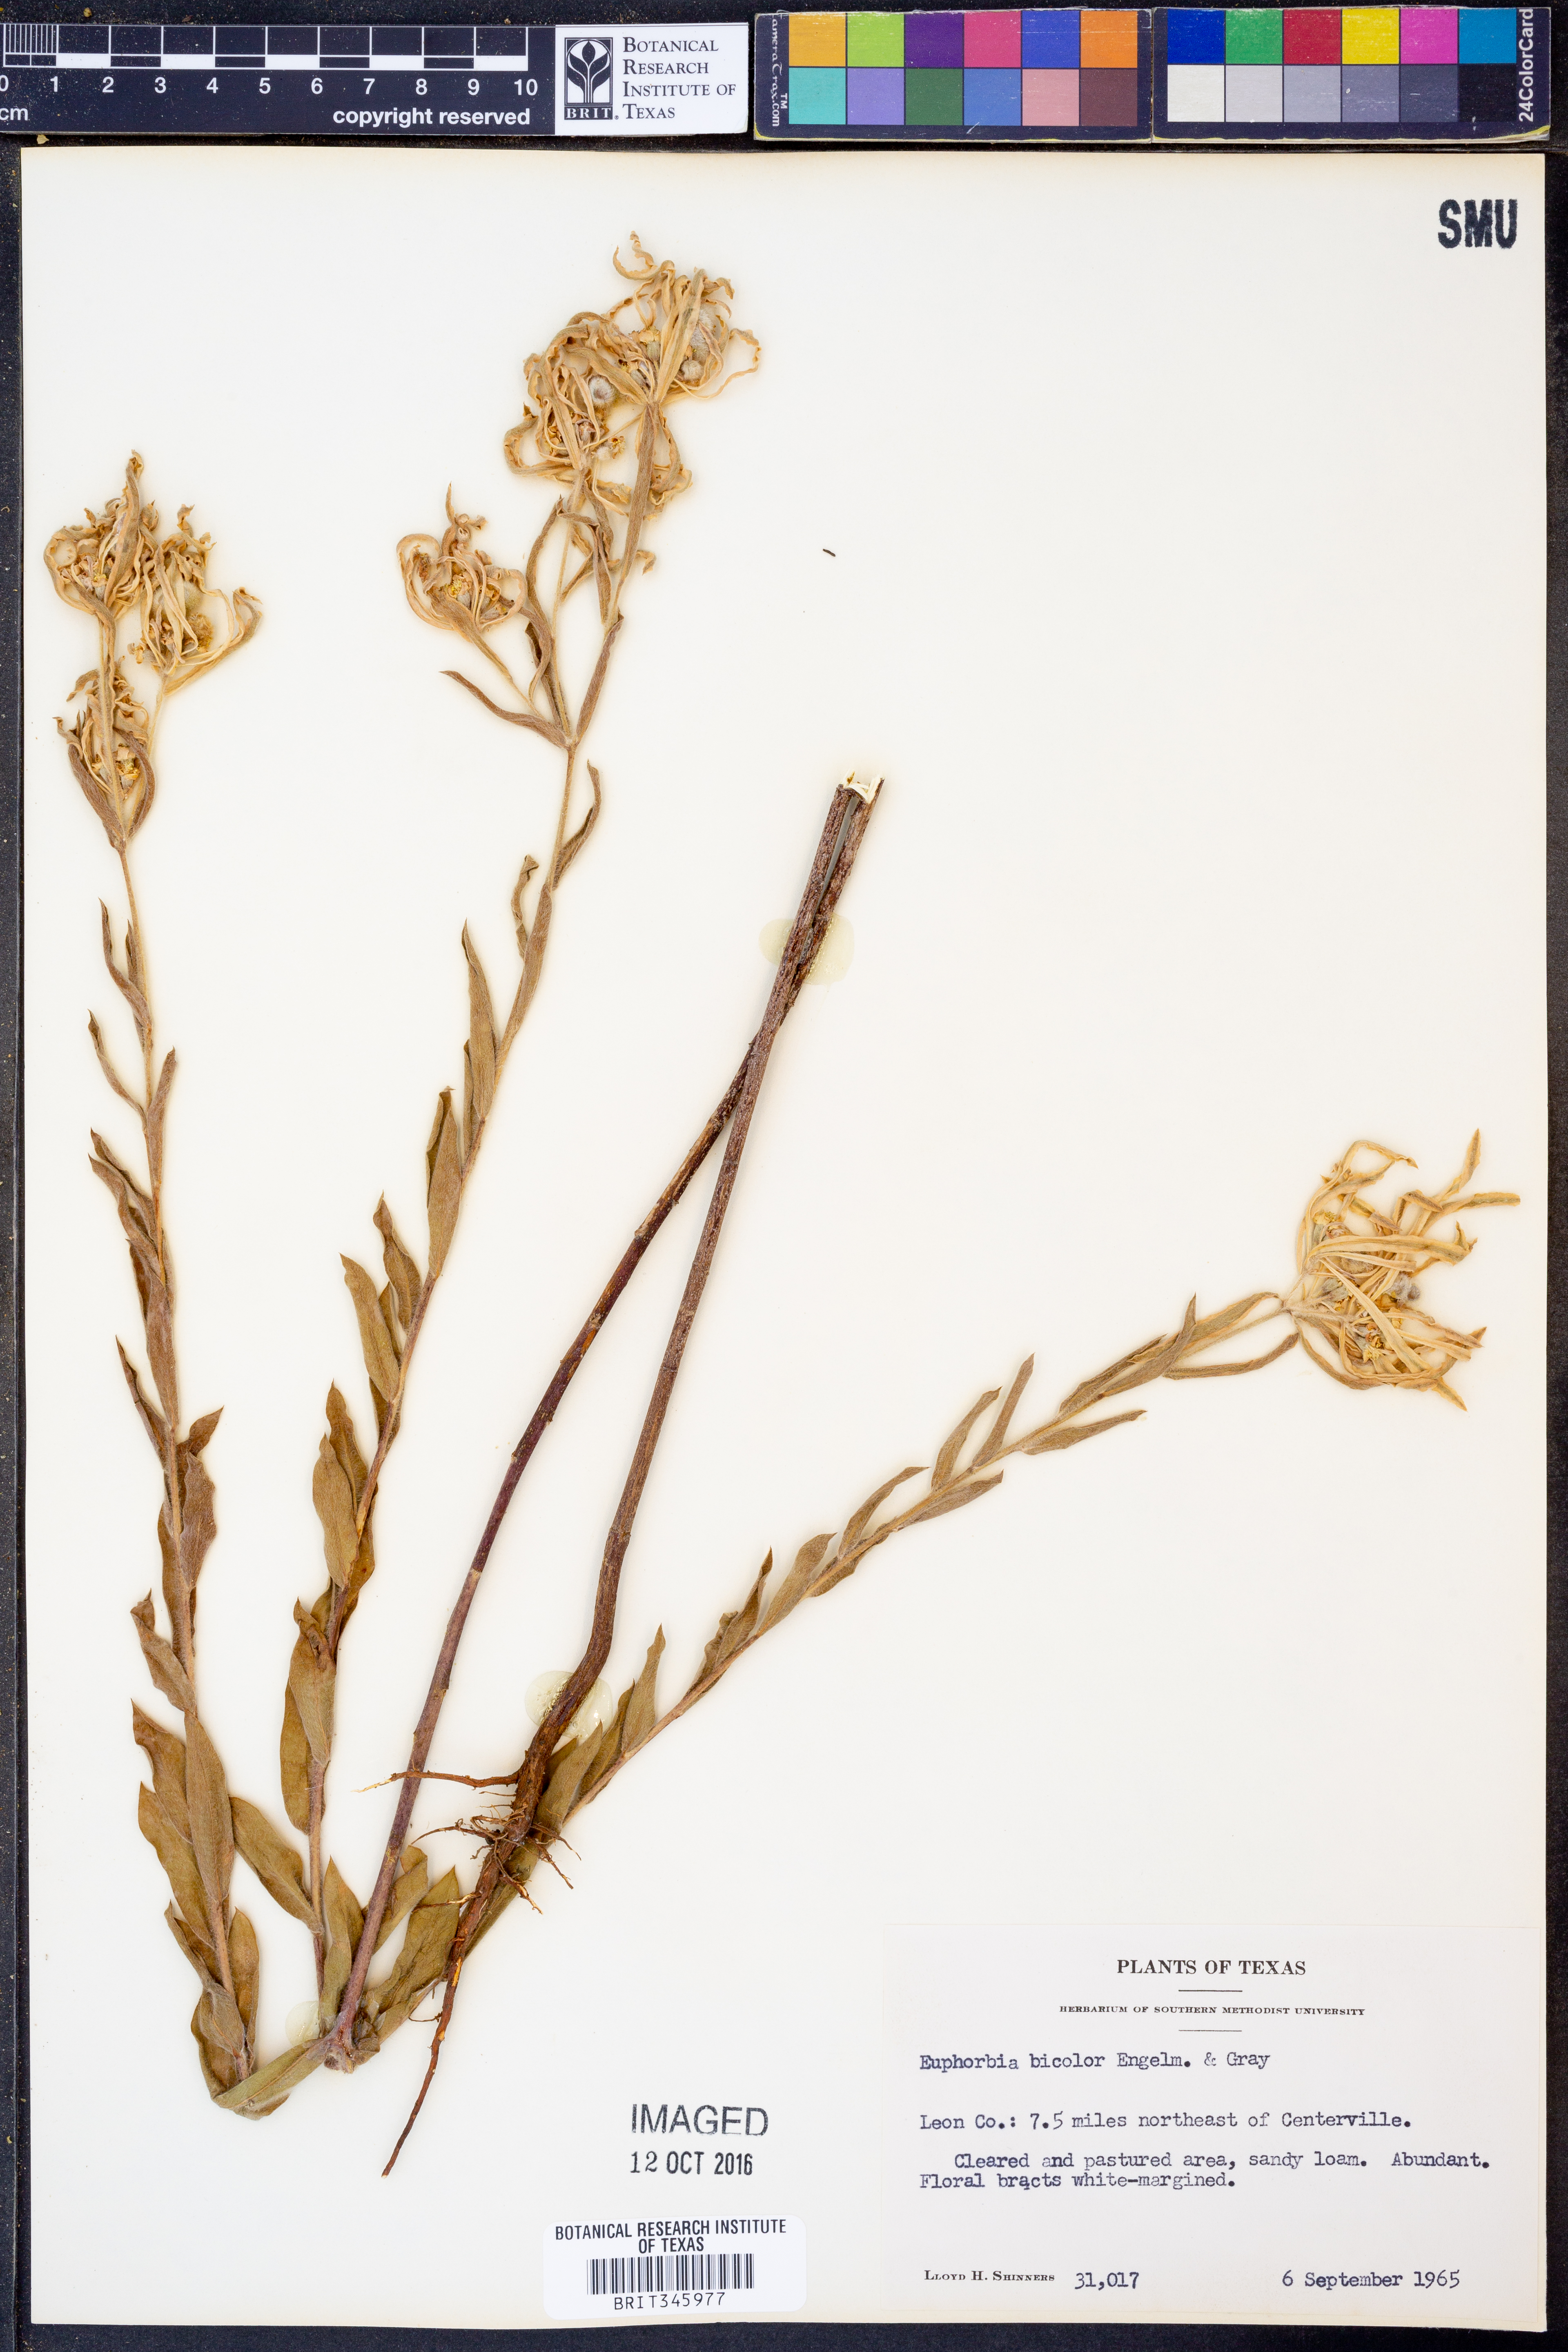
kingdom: Plantae
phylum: Tracheophyta
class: Magnoliopsida
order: Malpighiales
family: Euphorbiaceae
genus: Euphorbia
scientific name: Euphorbia bicolor
